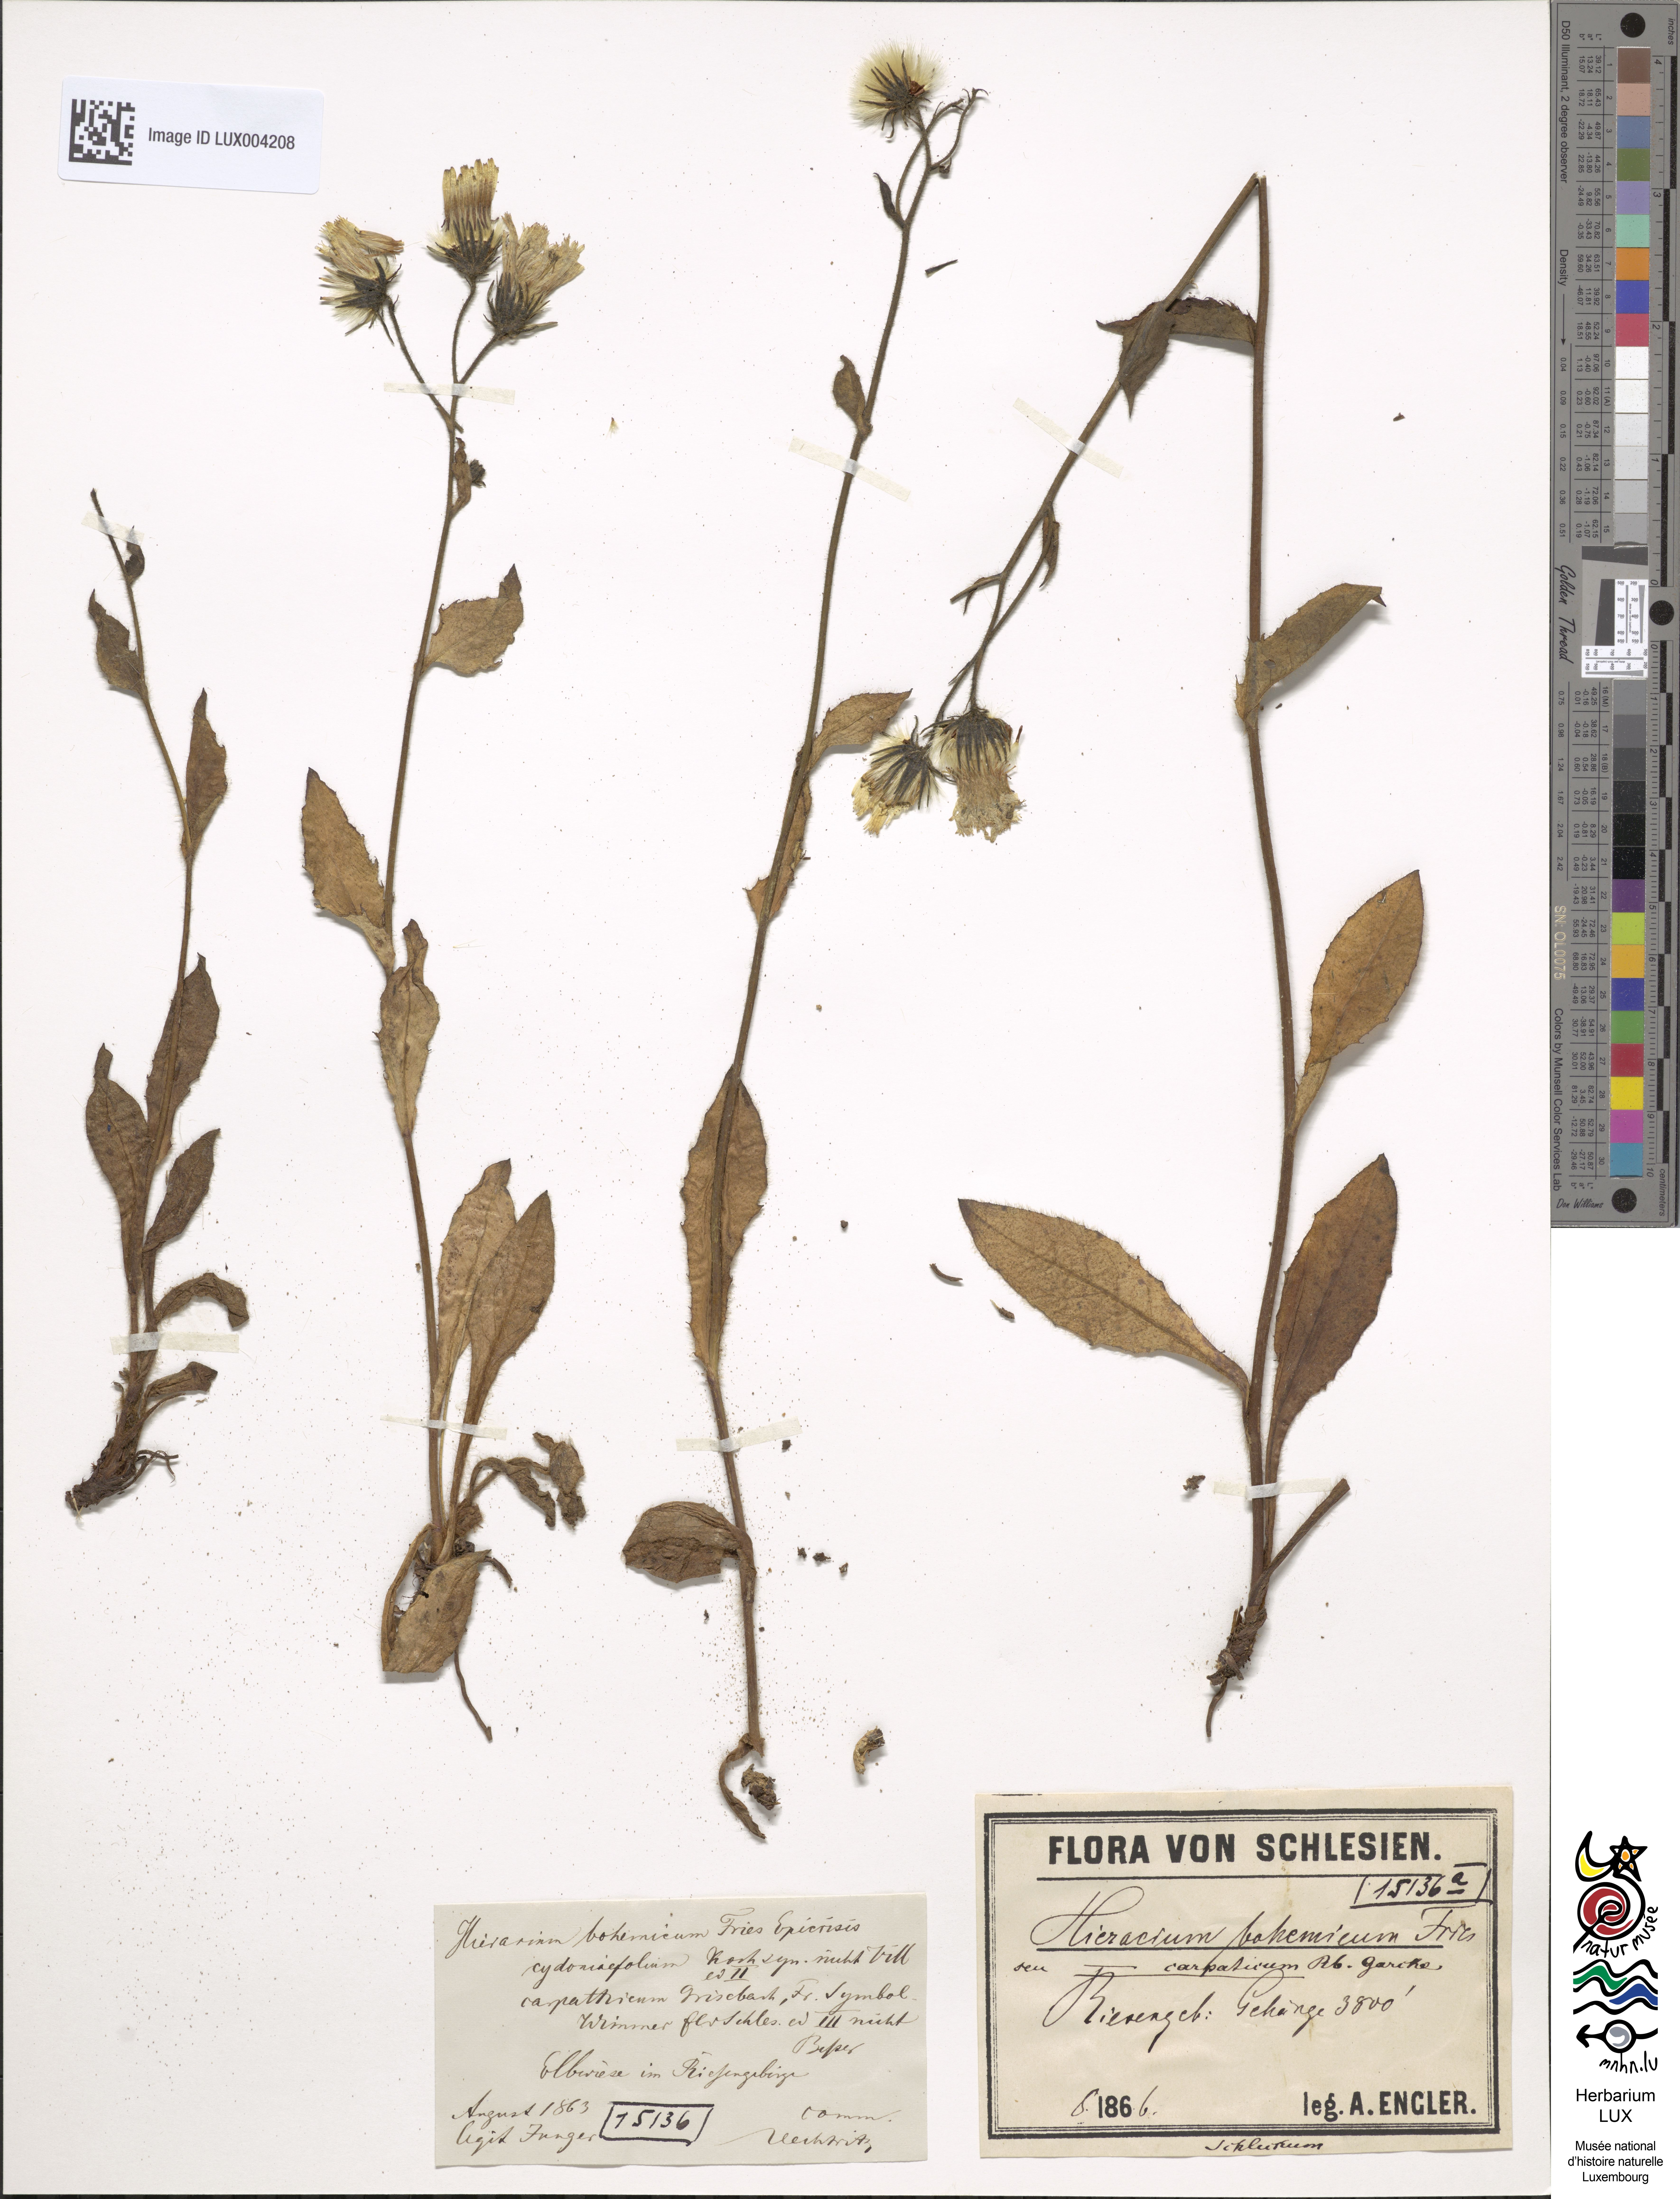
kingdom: Plantae
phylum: Tracheophyta
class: Magnoliopsida
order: Asterales
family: Asteraceae
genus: Hieracium
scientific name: Hieracium sudeticum
